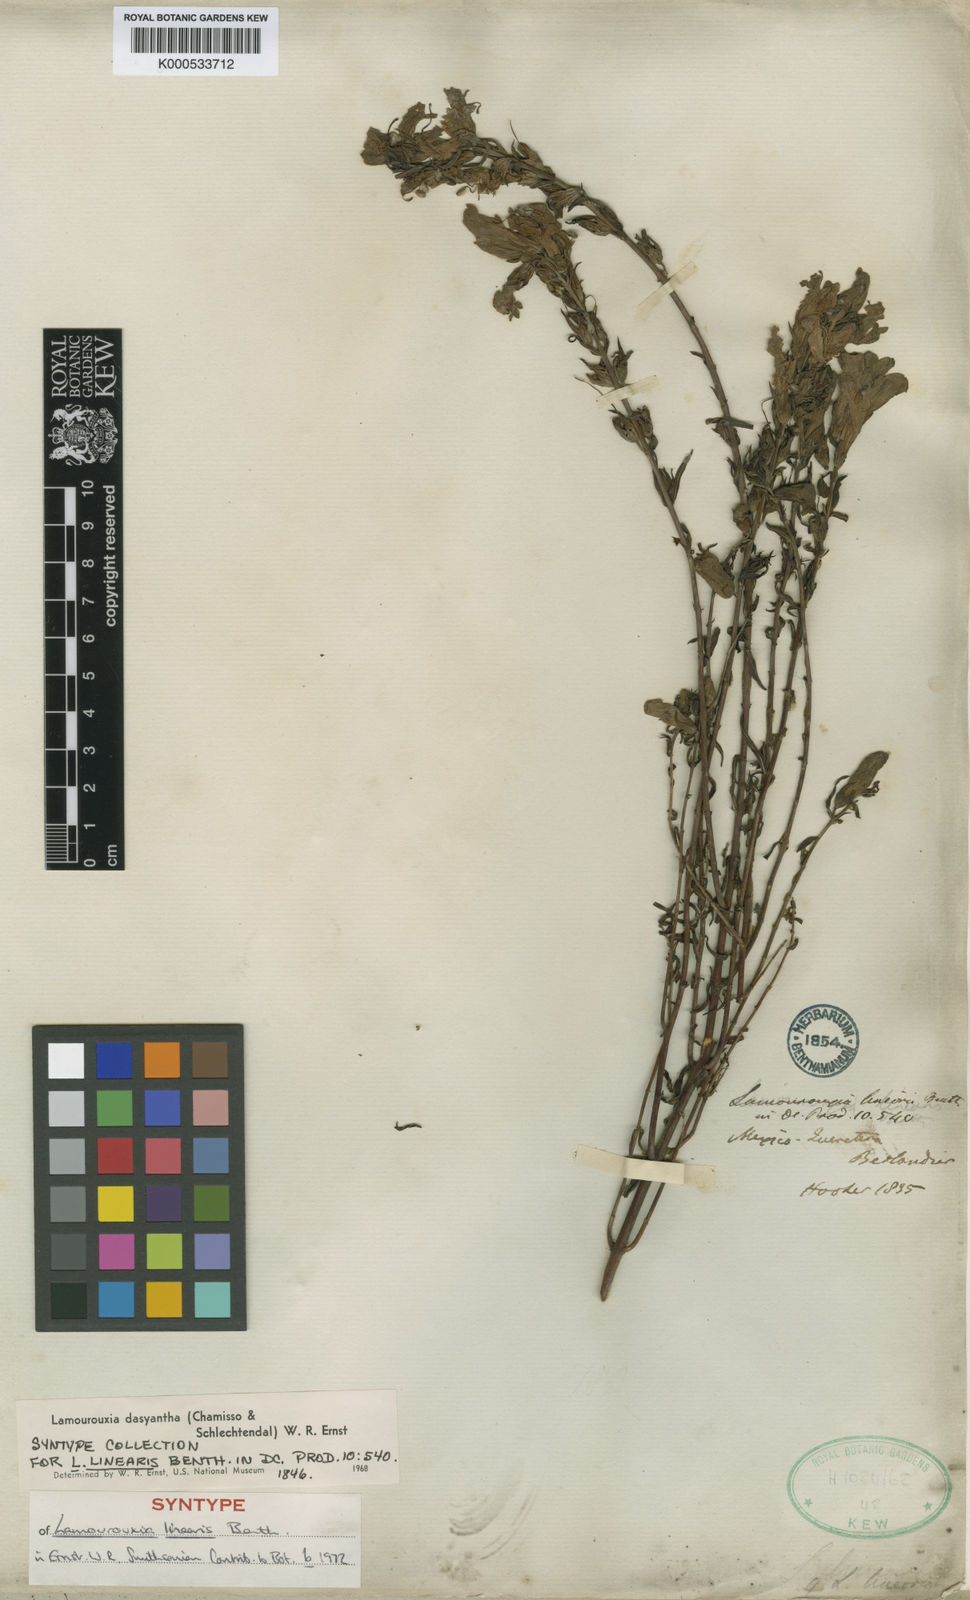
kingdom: Plantae
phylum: Tracheophyta
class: Magnoliopsida
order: Lamiales
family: Orobanchaceae
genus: Lamourouxia
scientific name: Lamourouxia dasyantha
